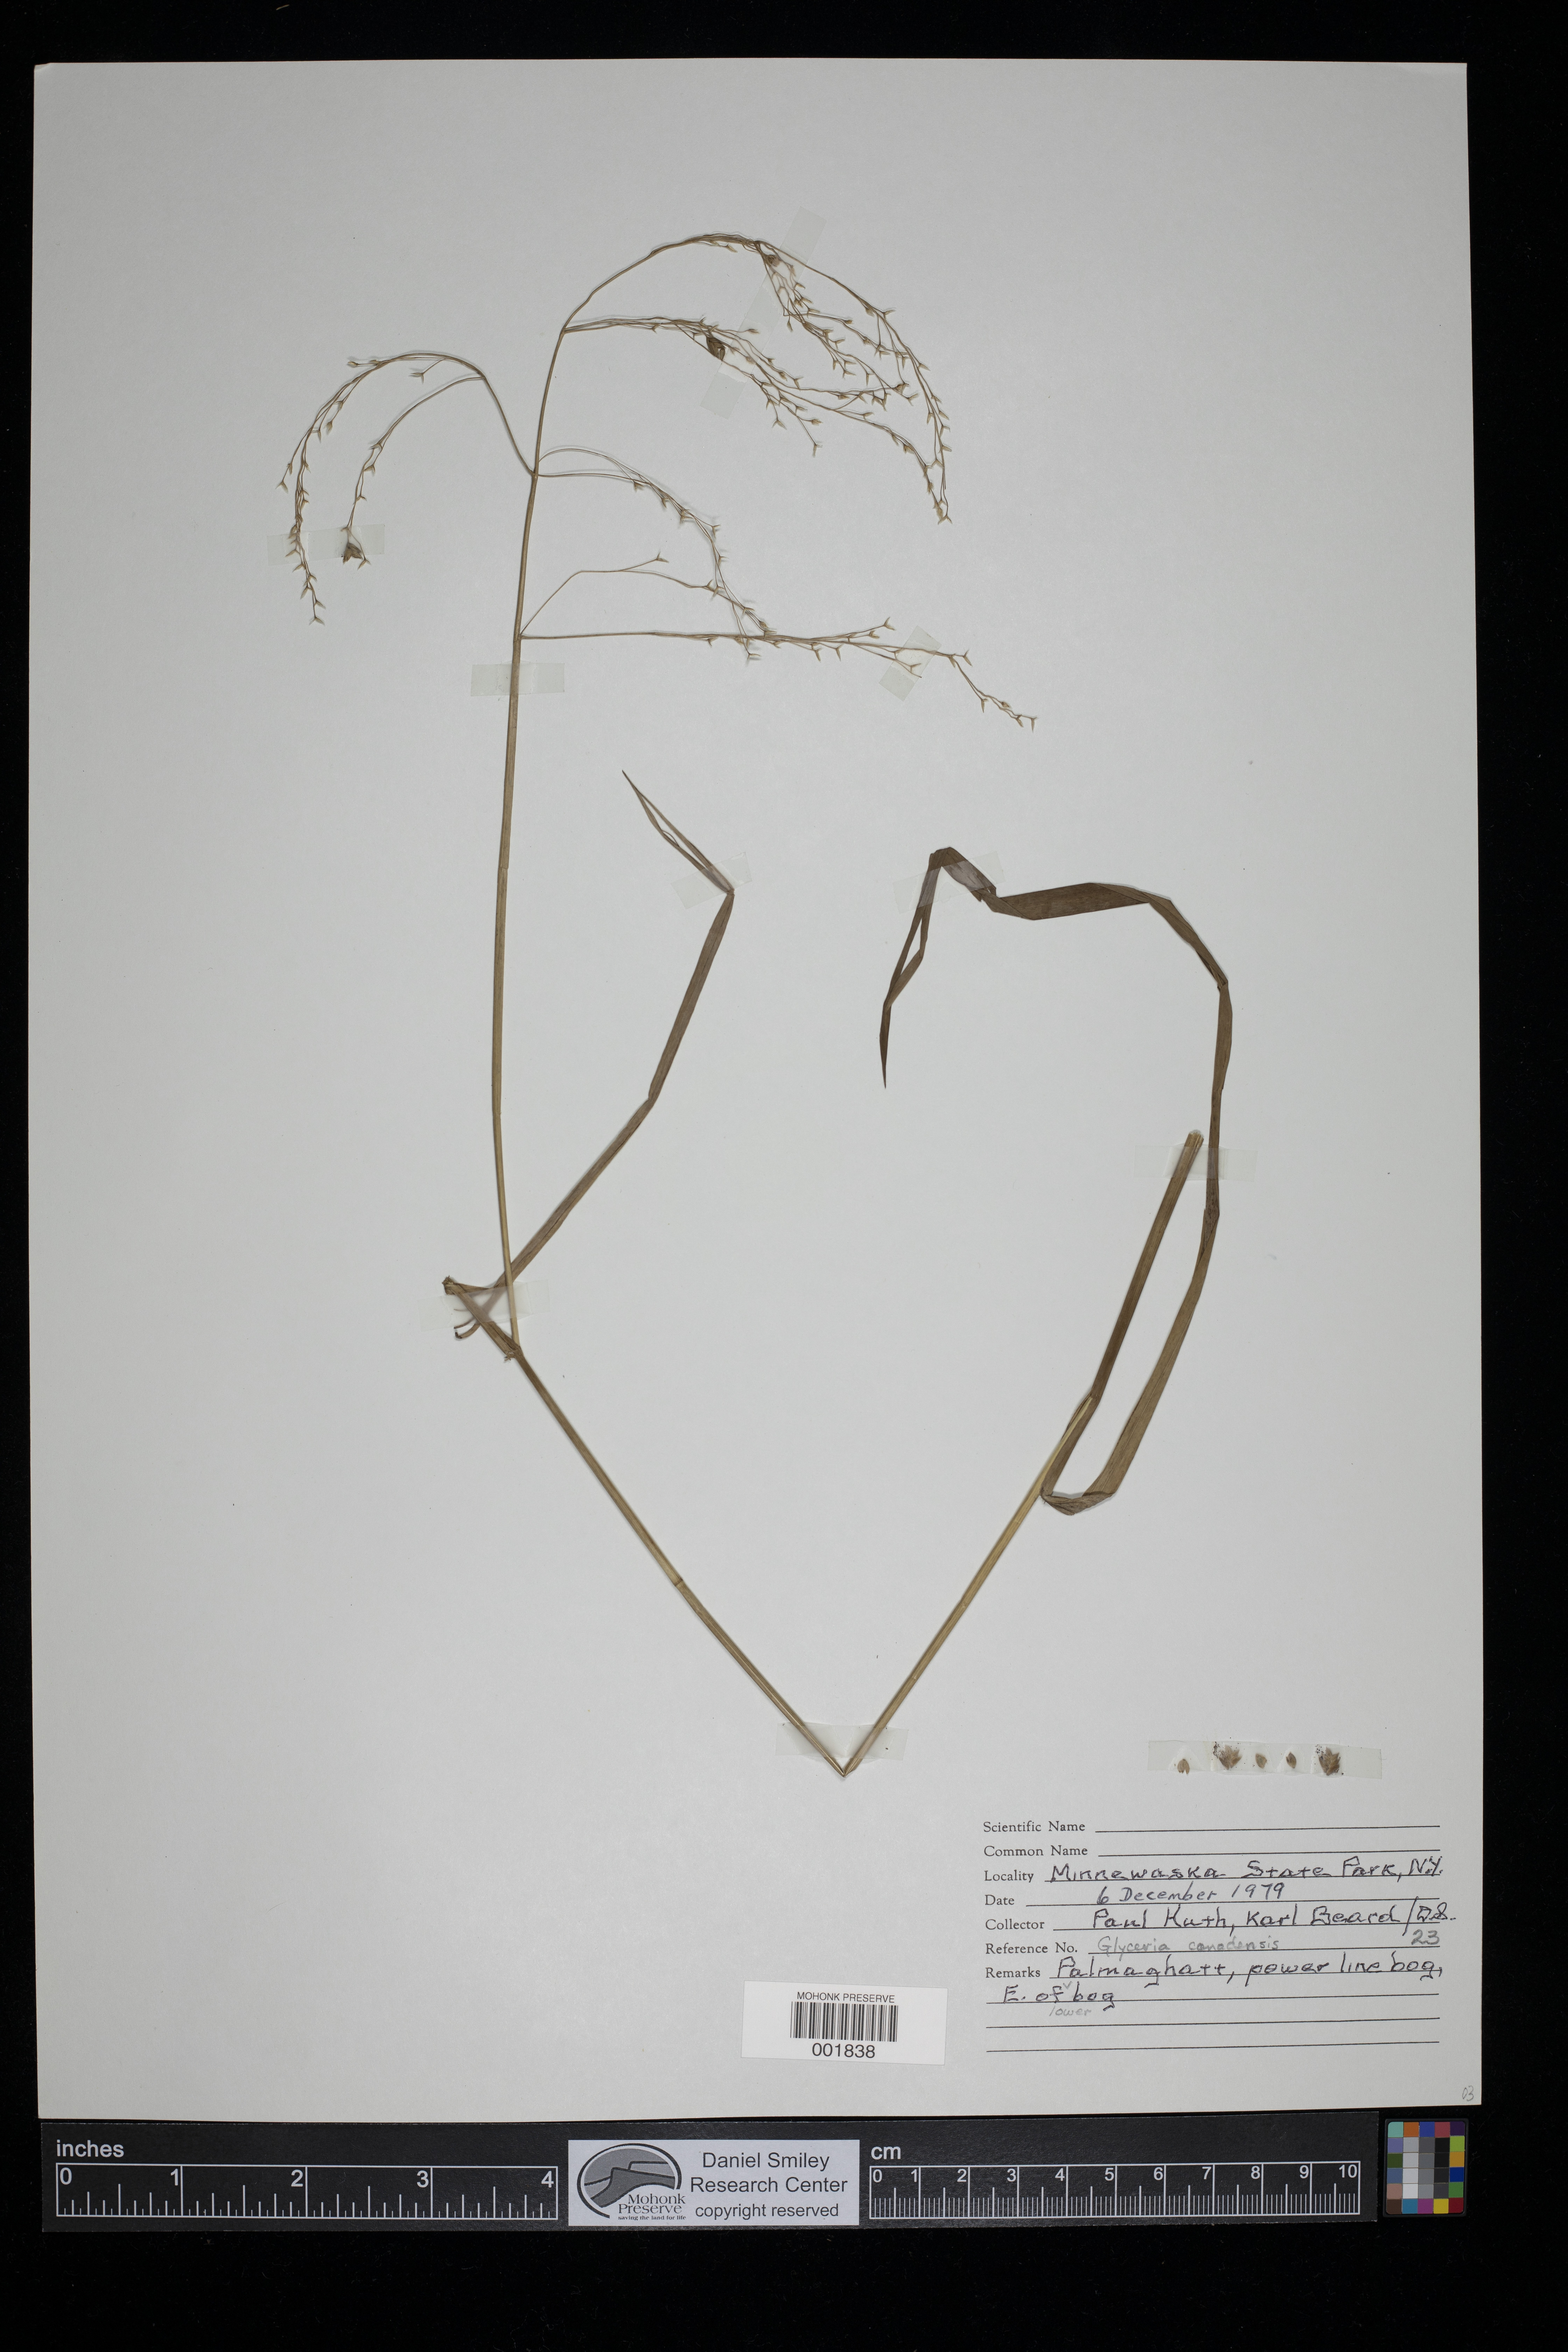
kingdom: Plantae
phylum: Tracheophyta
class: Liliopsida
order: Poales
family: Poaceae
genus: Glyceria
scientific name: Glyceria canadensis
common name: Canada mannagrass
